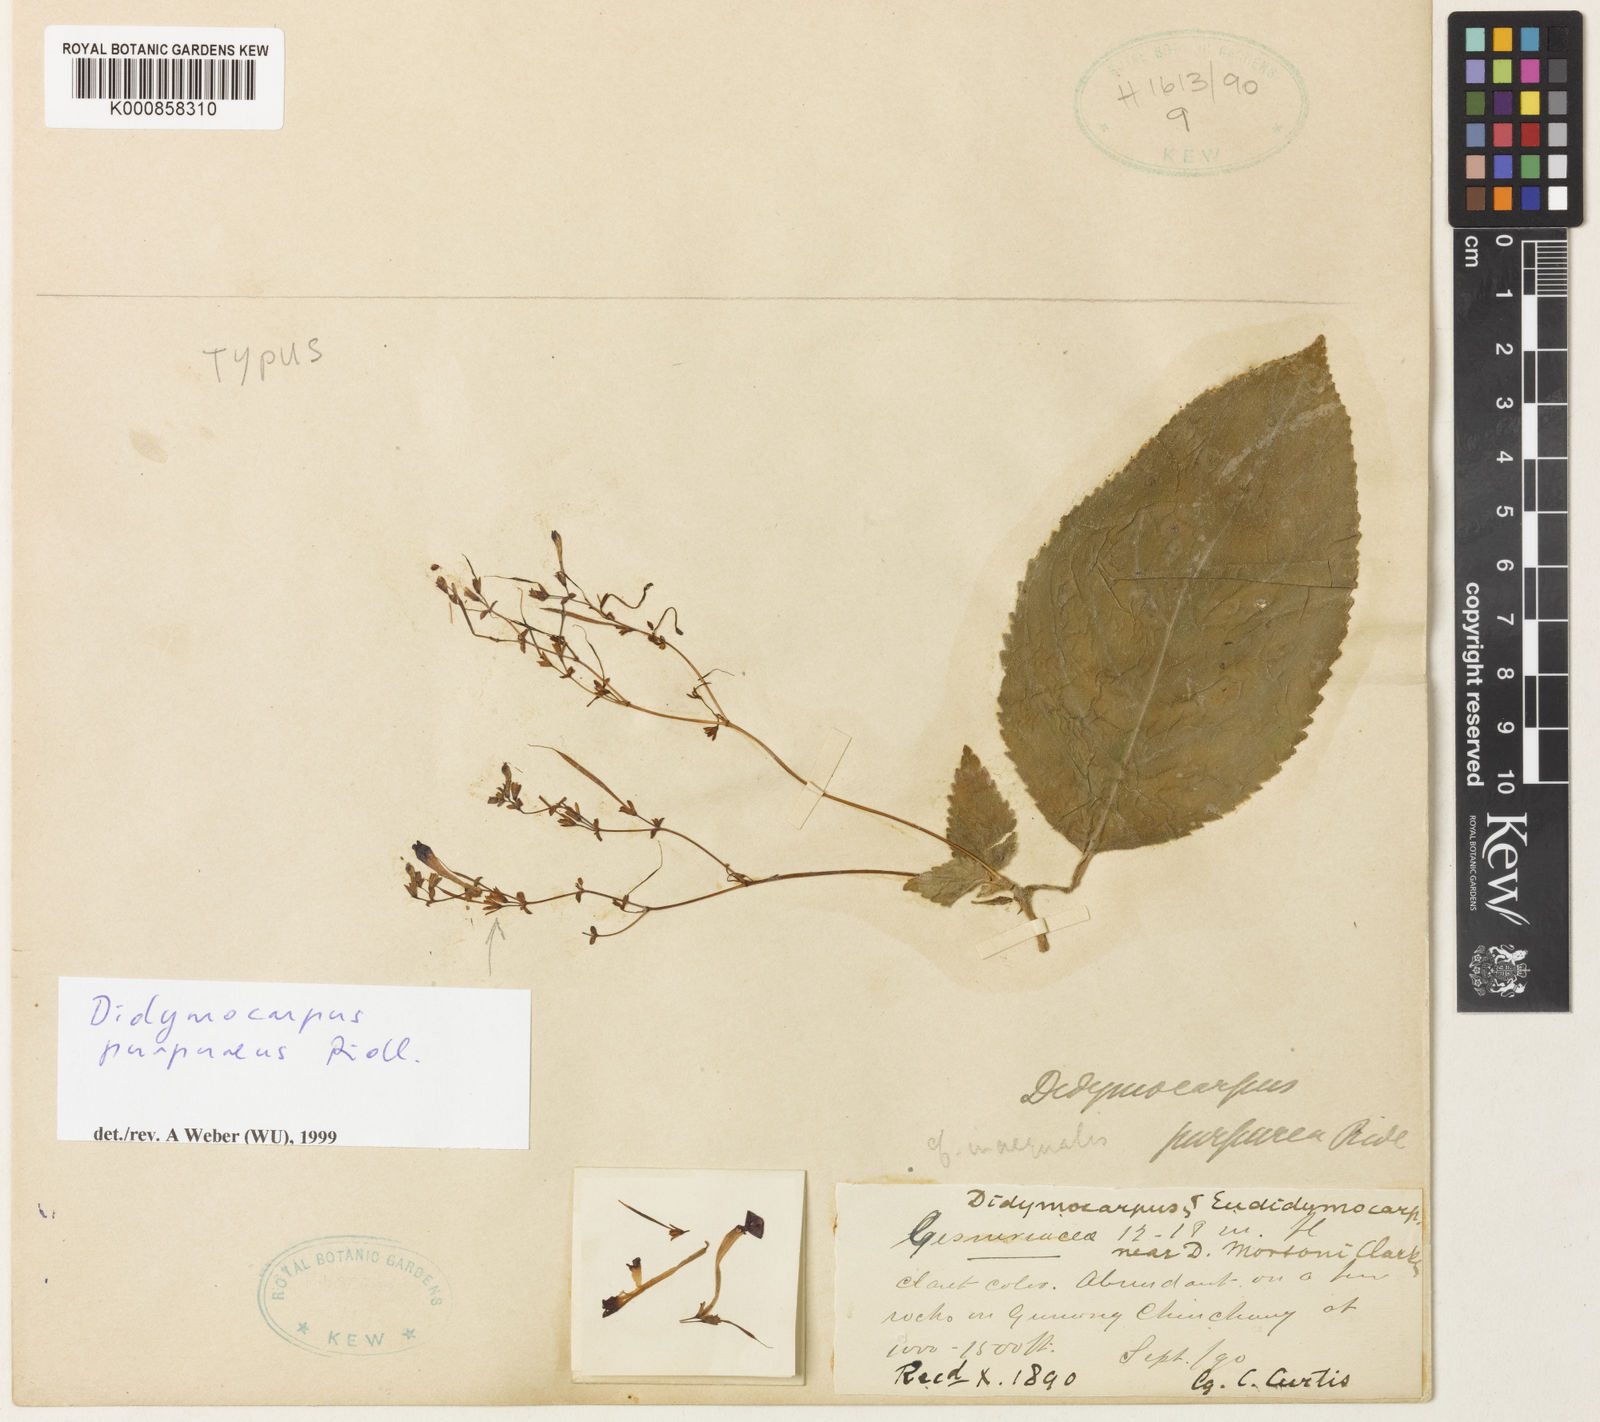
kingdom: Plantae
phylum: Tracheophyta
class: Magnoliopsida
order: Lamiales
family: Gesneriaceae
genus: Didymocarpus
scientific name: Didymocarpus purpureus
